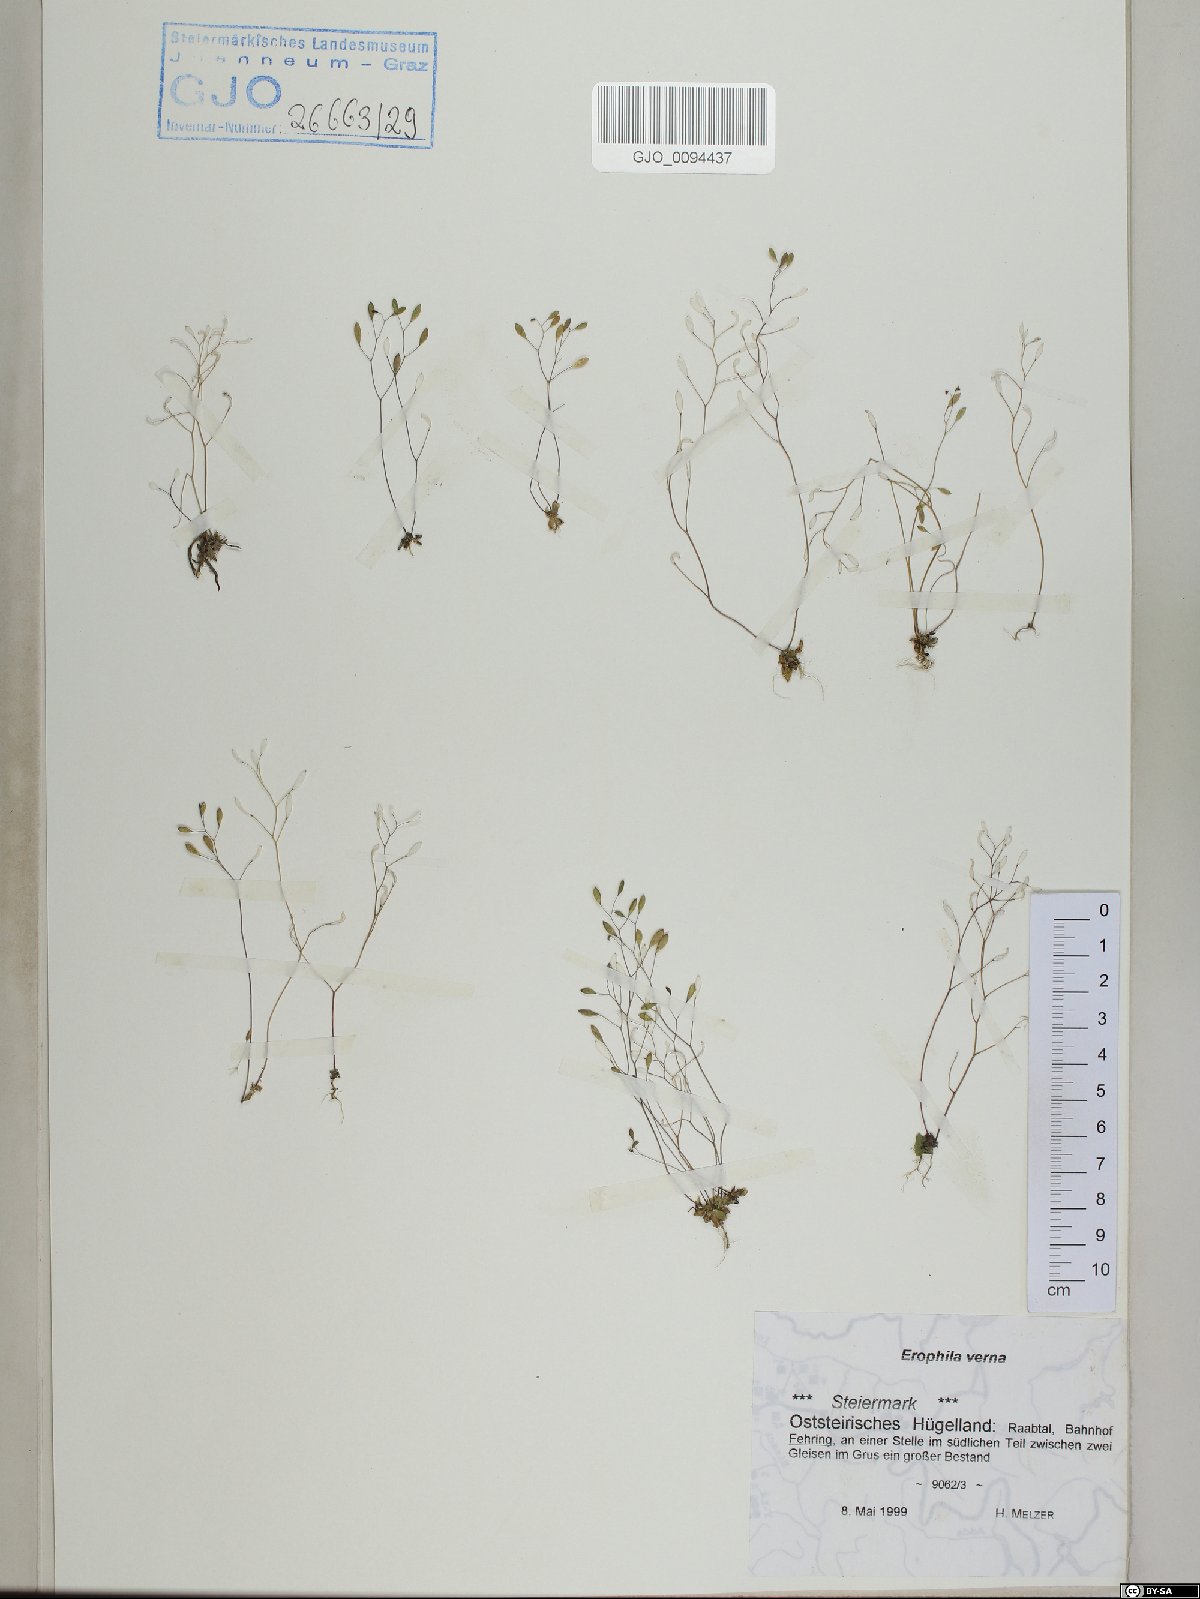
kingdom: Plantae
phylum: Tracheophyta
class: Magnoliopsida
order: Brassicales
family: Brassicaceae
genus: Draba
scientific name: Draba verna
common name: Spring draba
